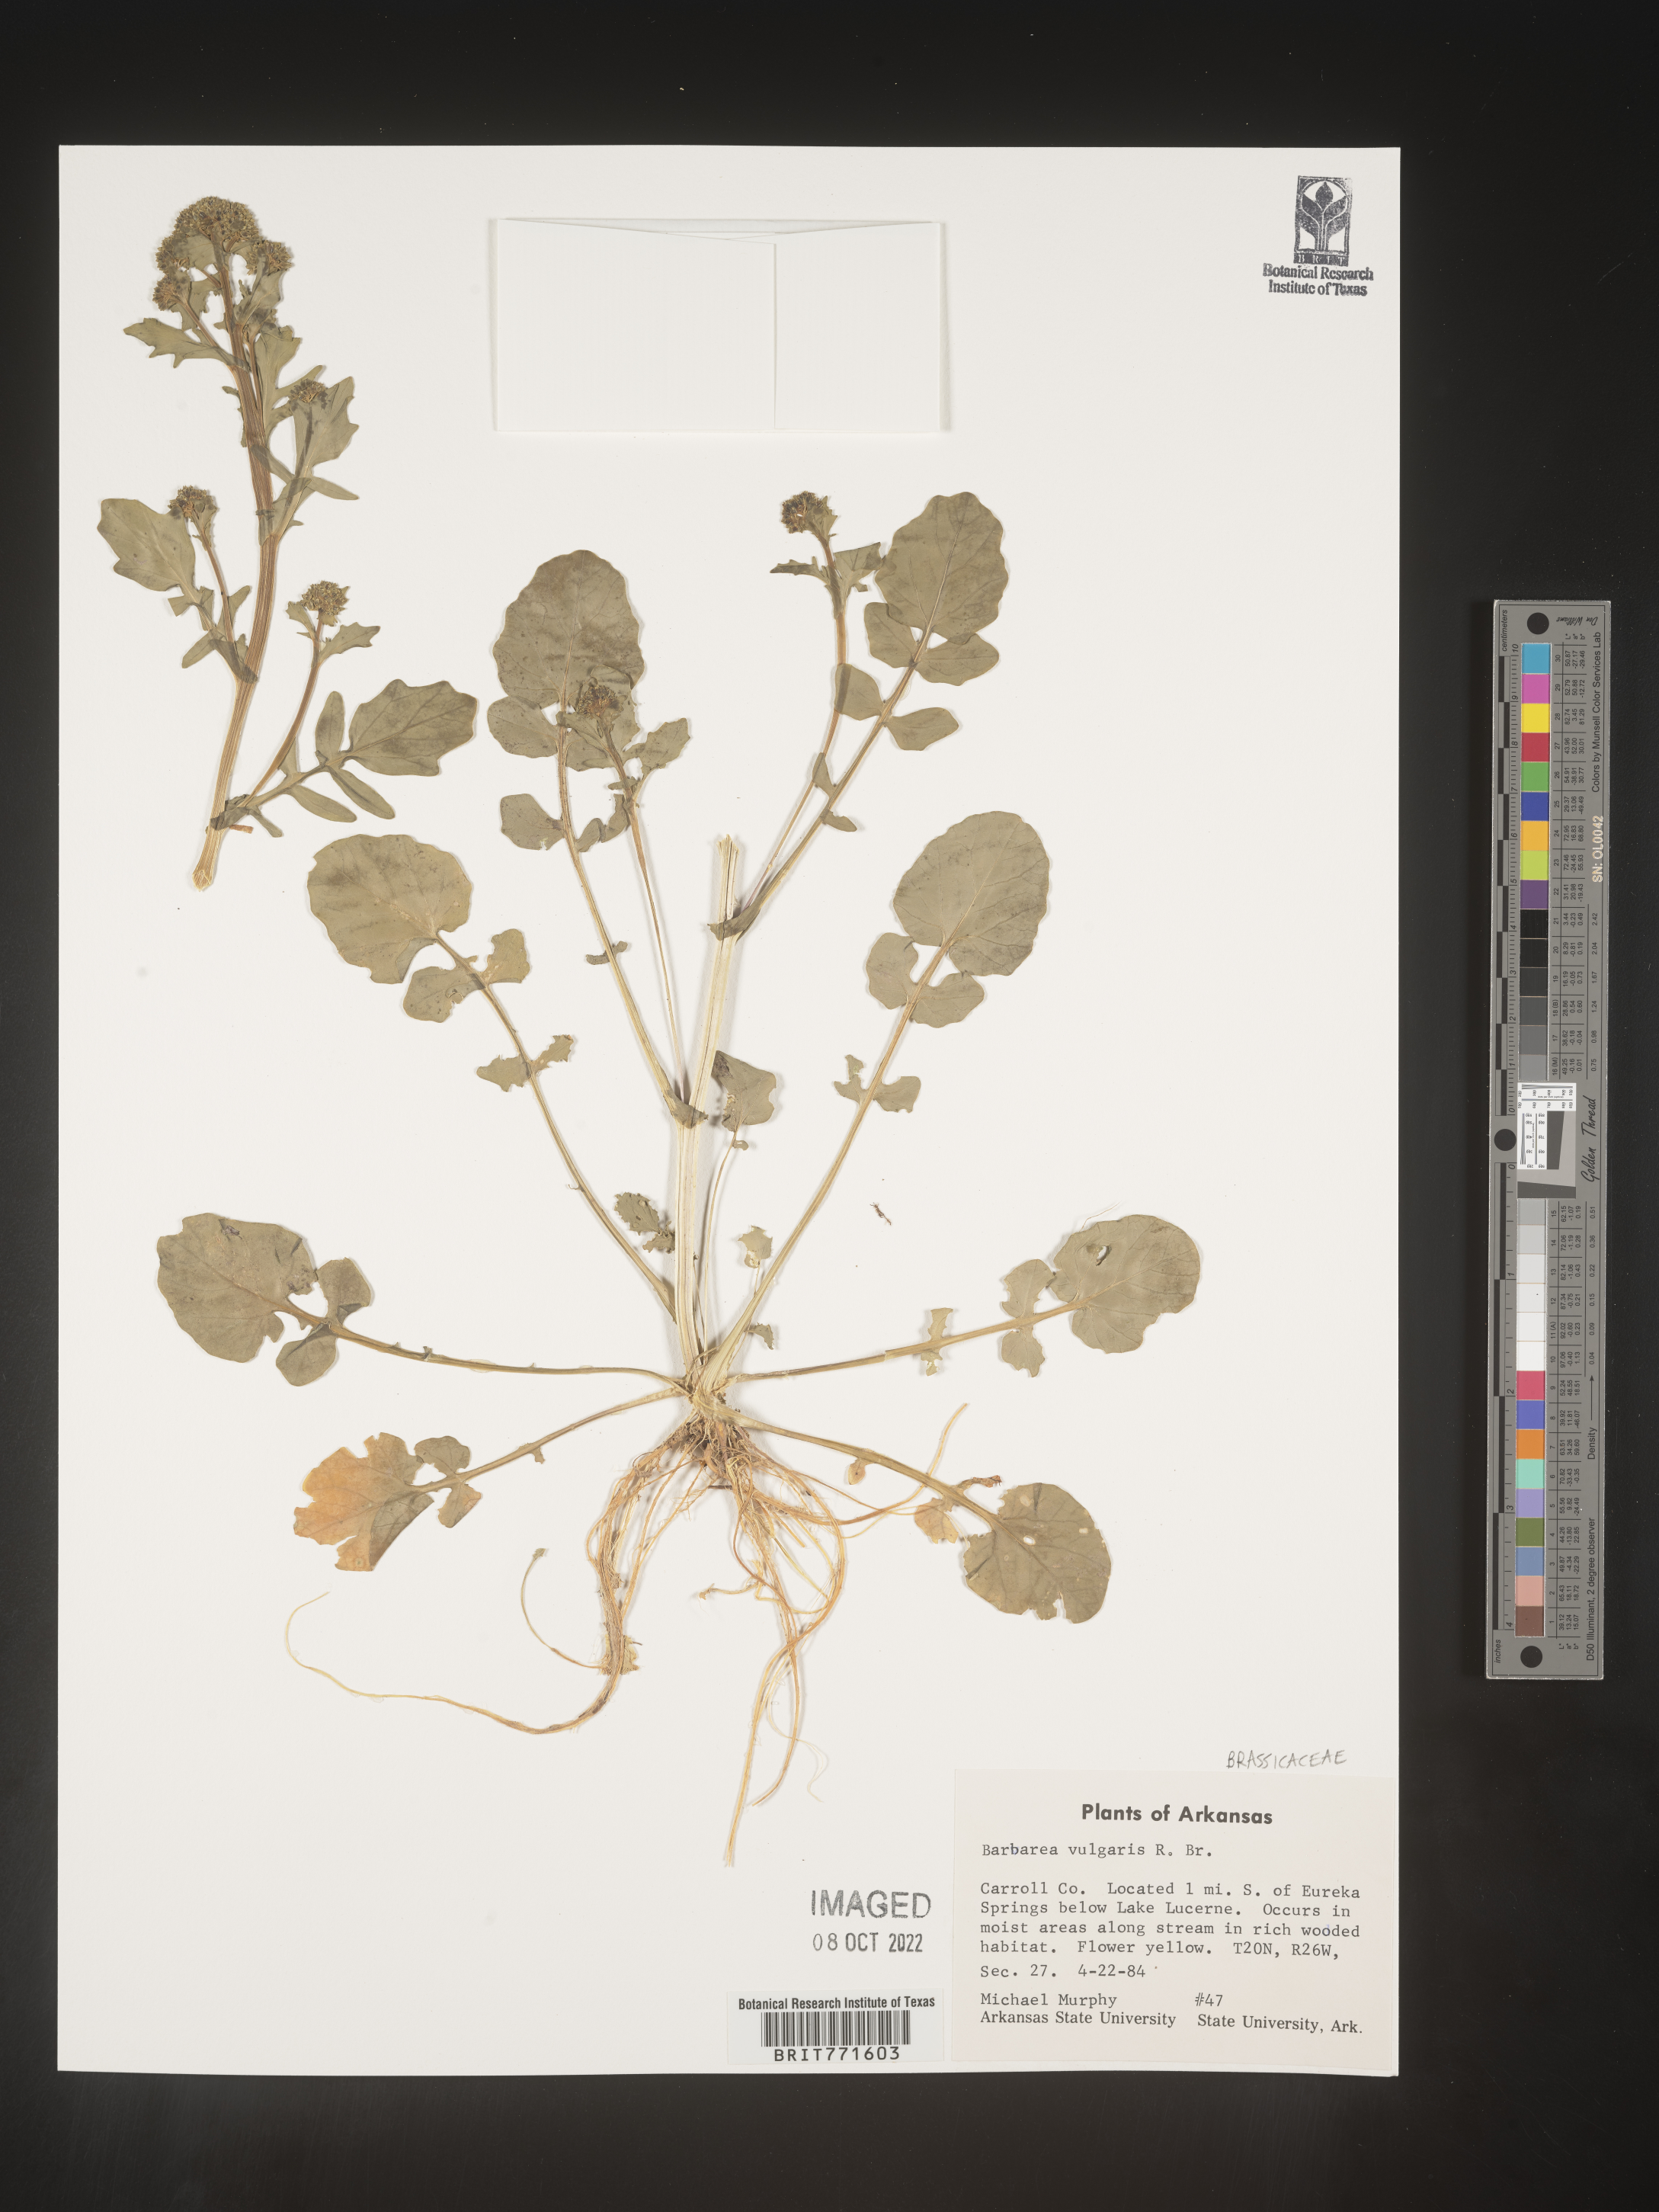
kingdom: Plantae
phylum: Tracheophyta
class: Magnoliopsida
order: Brassicales
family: Brassicaceae
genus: Barbarea
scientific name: Barbarea vulgaris
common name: Cressy-greens
